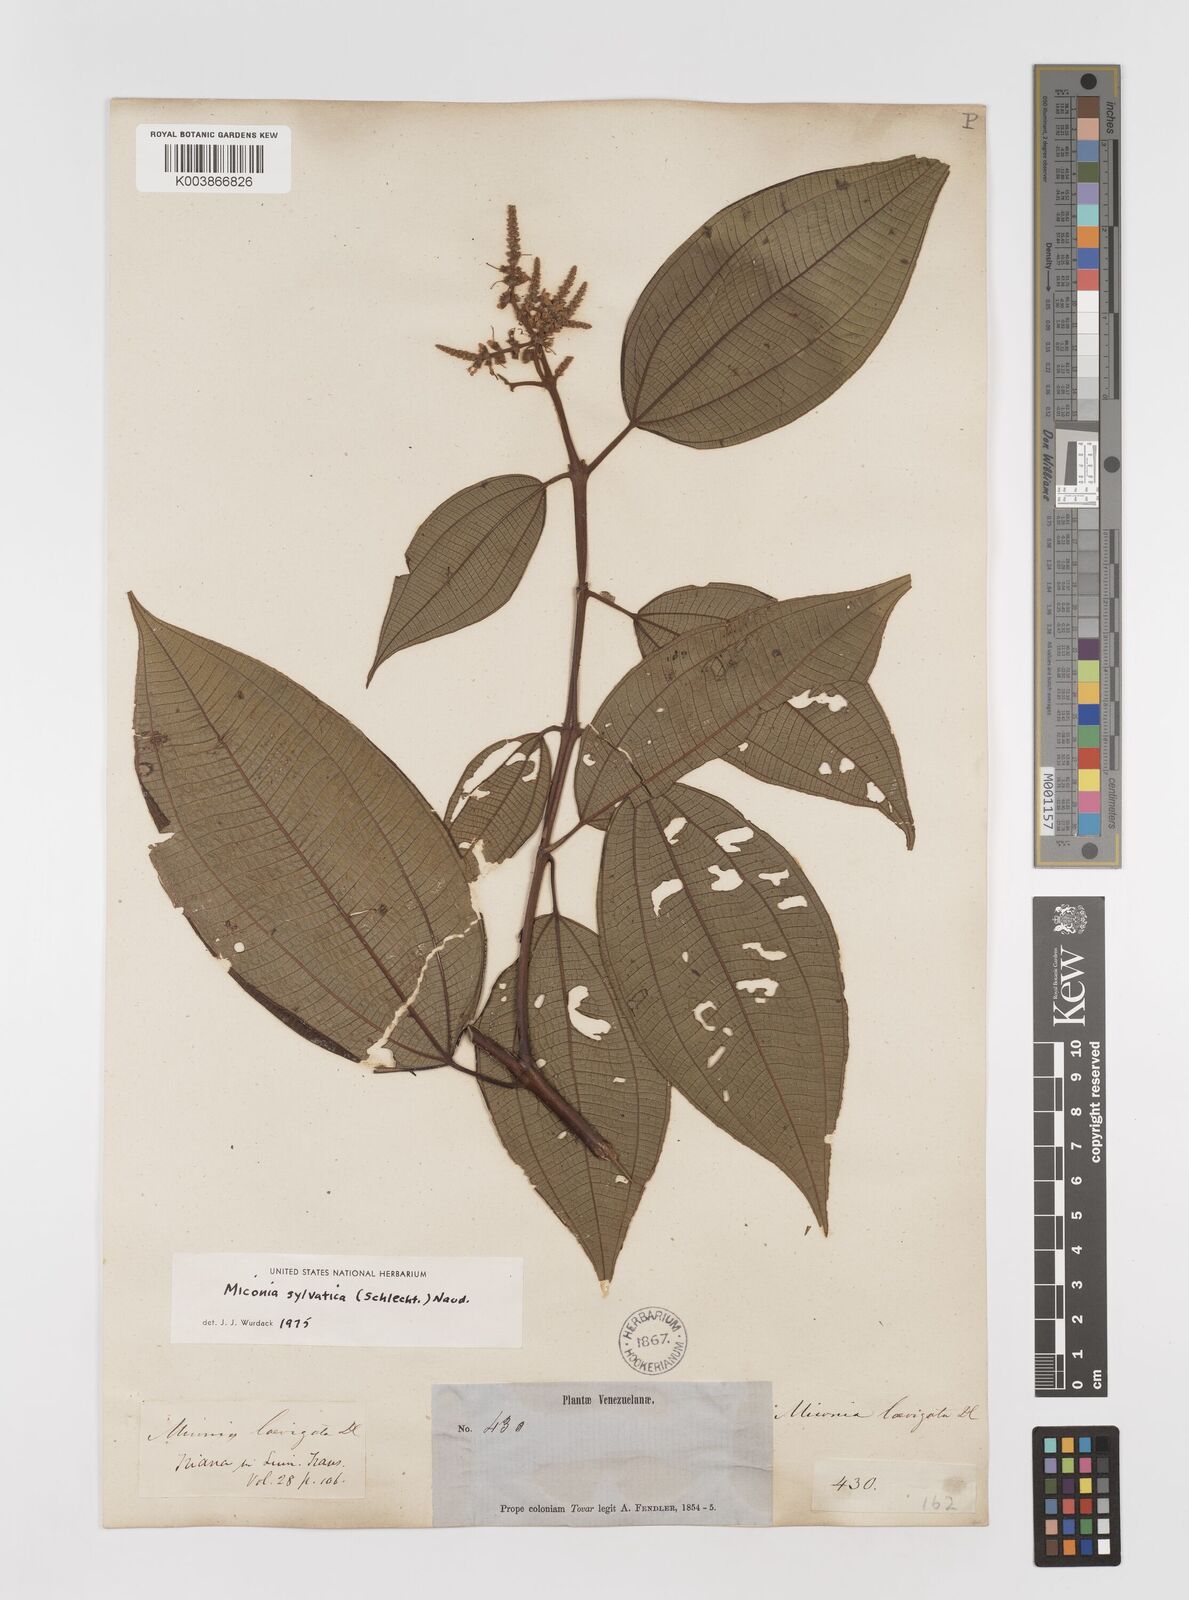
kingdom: Plantae
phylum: Tracheophyta
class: Magnoliopsida
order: Myrtales
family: Melastomataceae
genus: Miconia
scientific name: Miconia sylvatica
